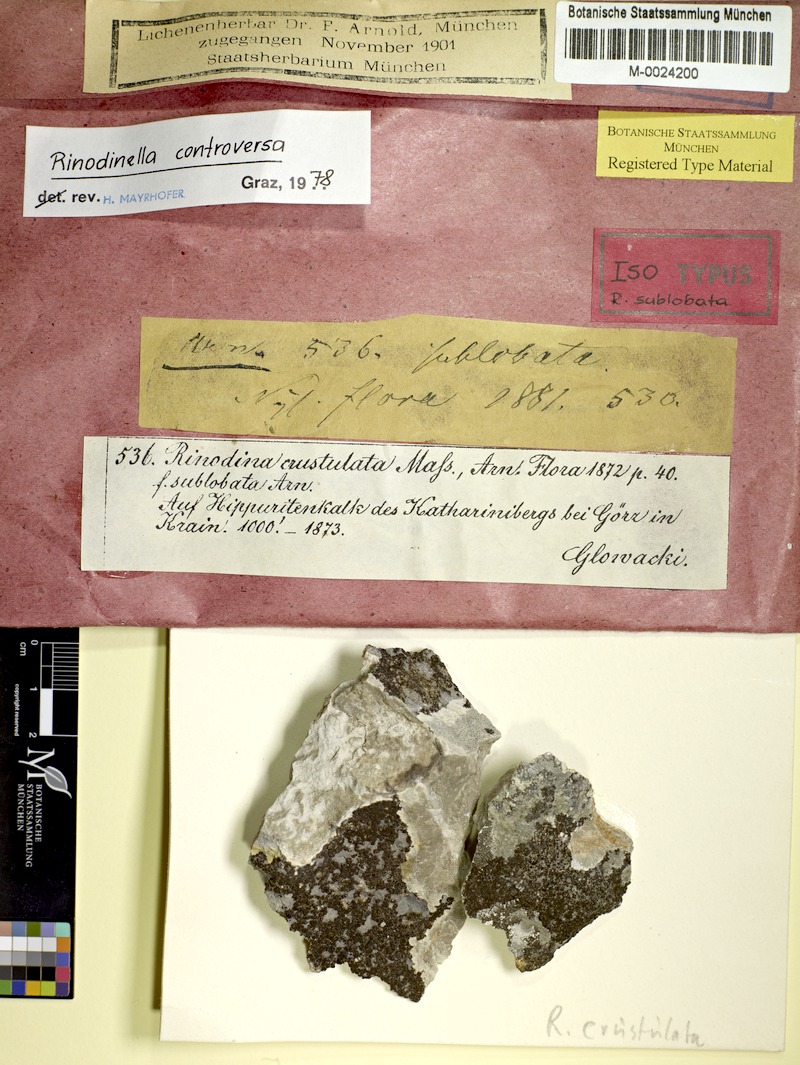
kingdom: Fungi
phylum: Ascomycota
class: Lecanoromycetes
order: Caliciales
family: Physciaceae
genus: Rinodinella
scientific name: Rinodinella controversa
